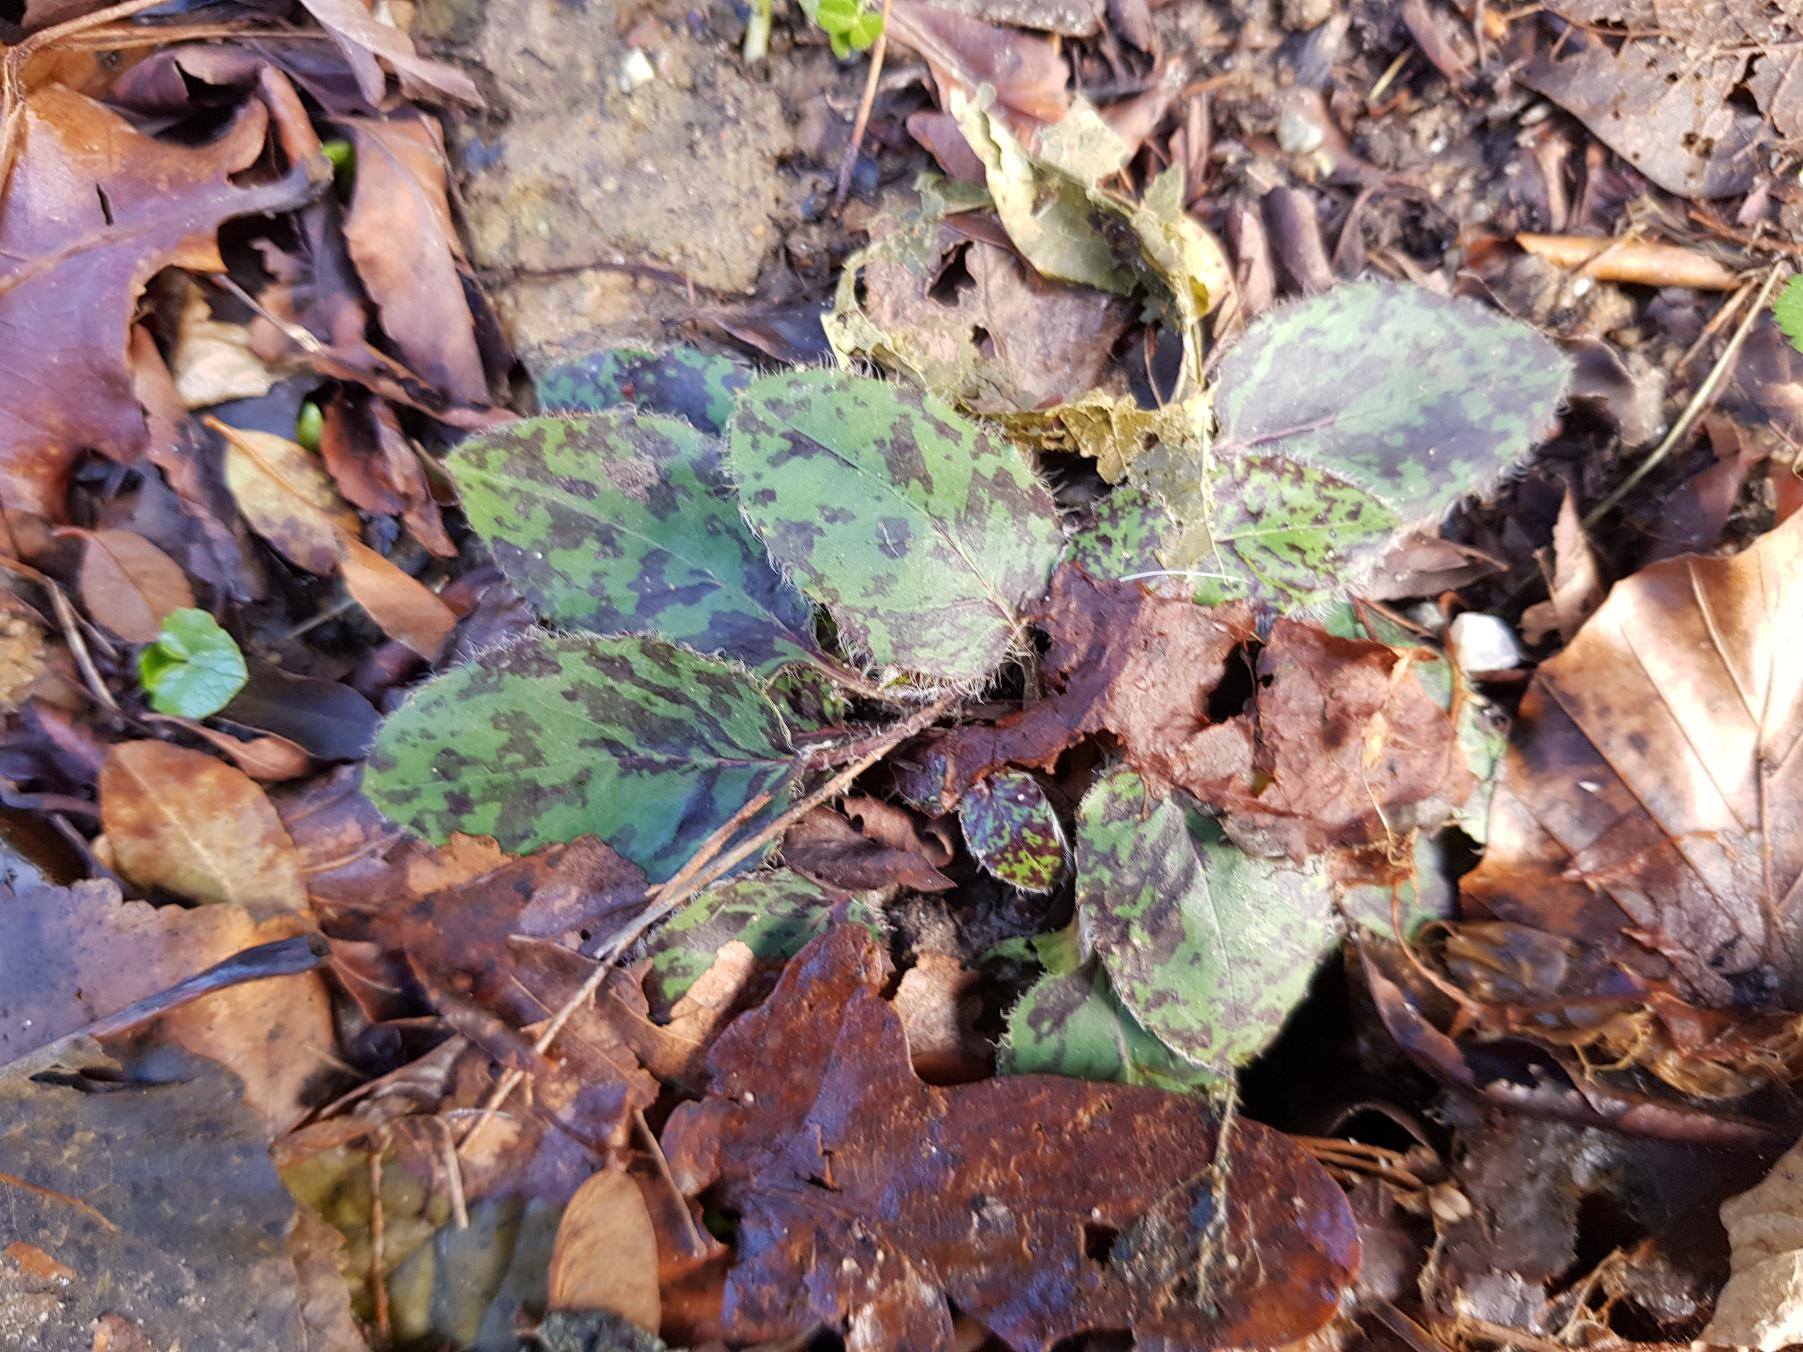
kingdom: Plantae
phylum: Tracheophyta
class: Magnoliopsida
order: Asterales
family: Asteraceae
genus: Hieracium
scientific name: Hieracium glaucinum
